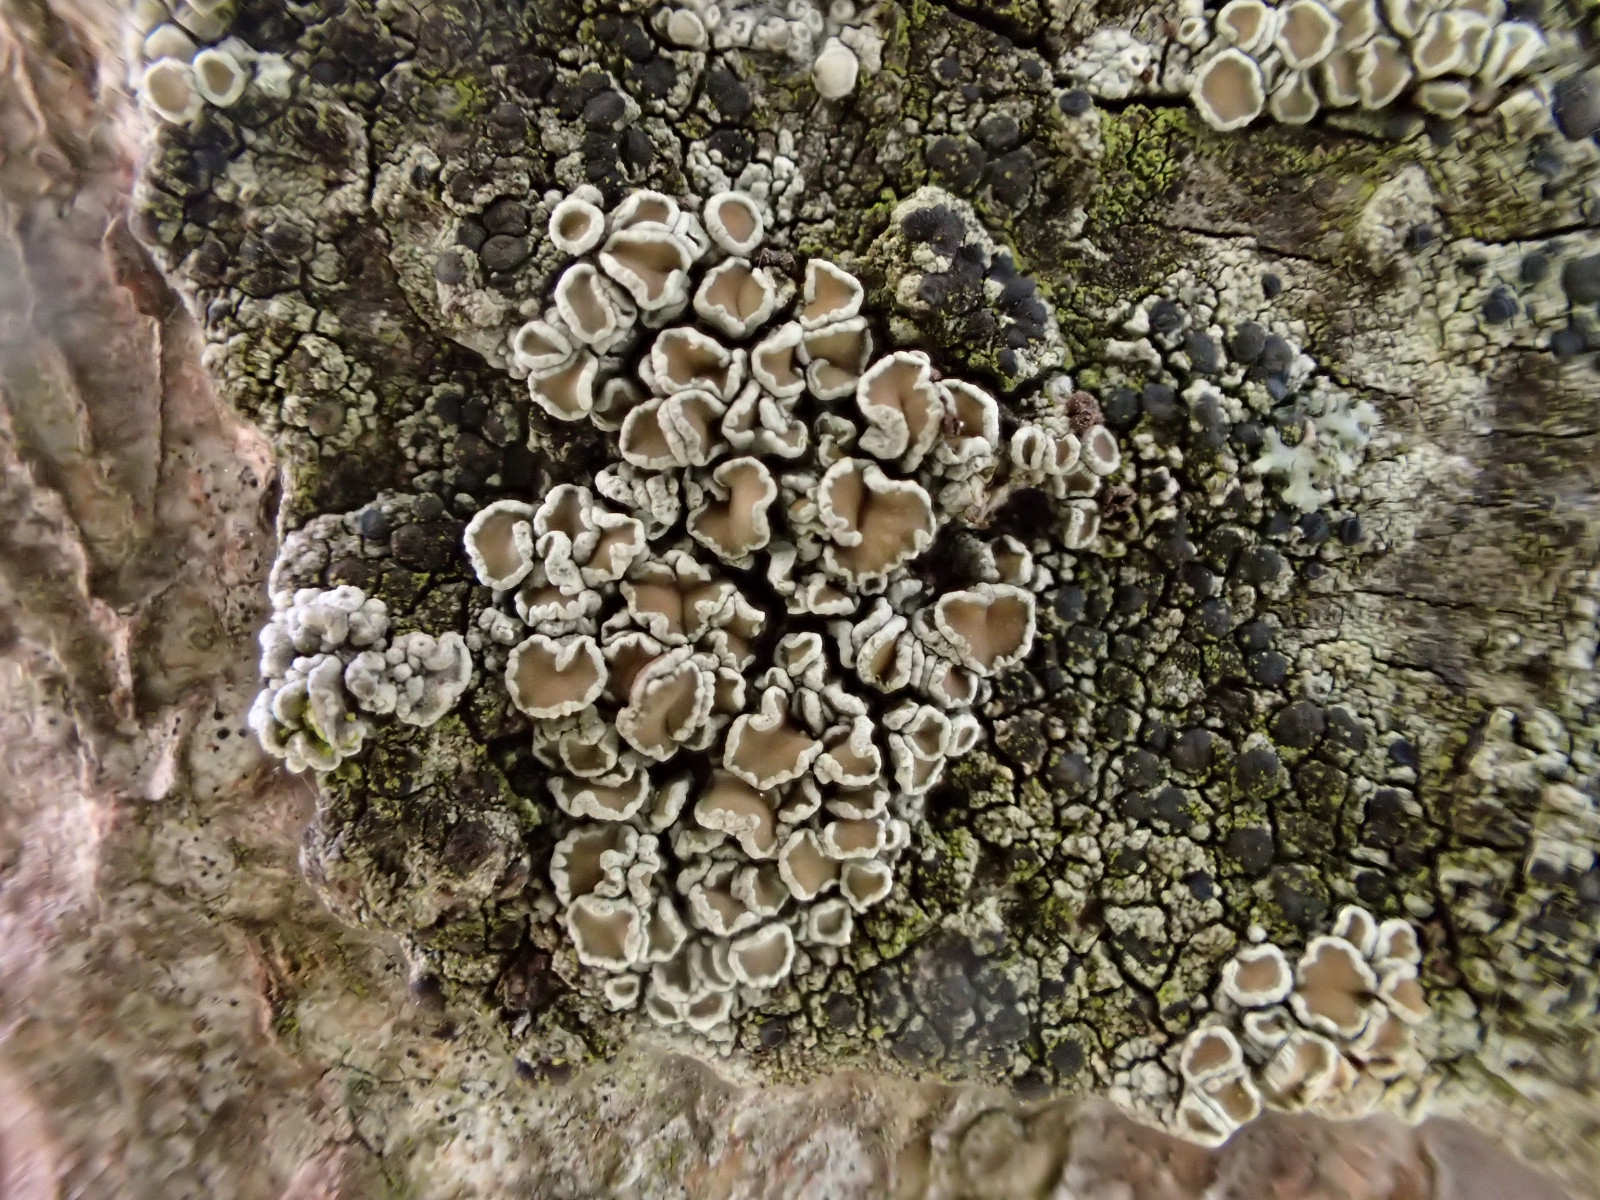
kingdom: Fungi
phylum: Ascomycota
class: Lecanoromycetes
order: Lecanorales
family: Lecanoraceae
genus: Lecanora
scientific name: Lecanora chlarotera
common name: brun kantskivelav
